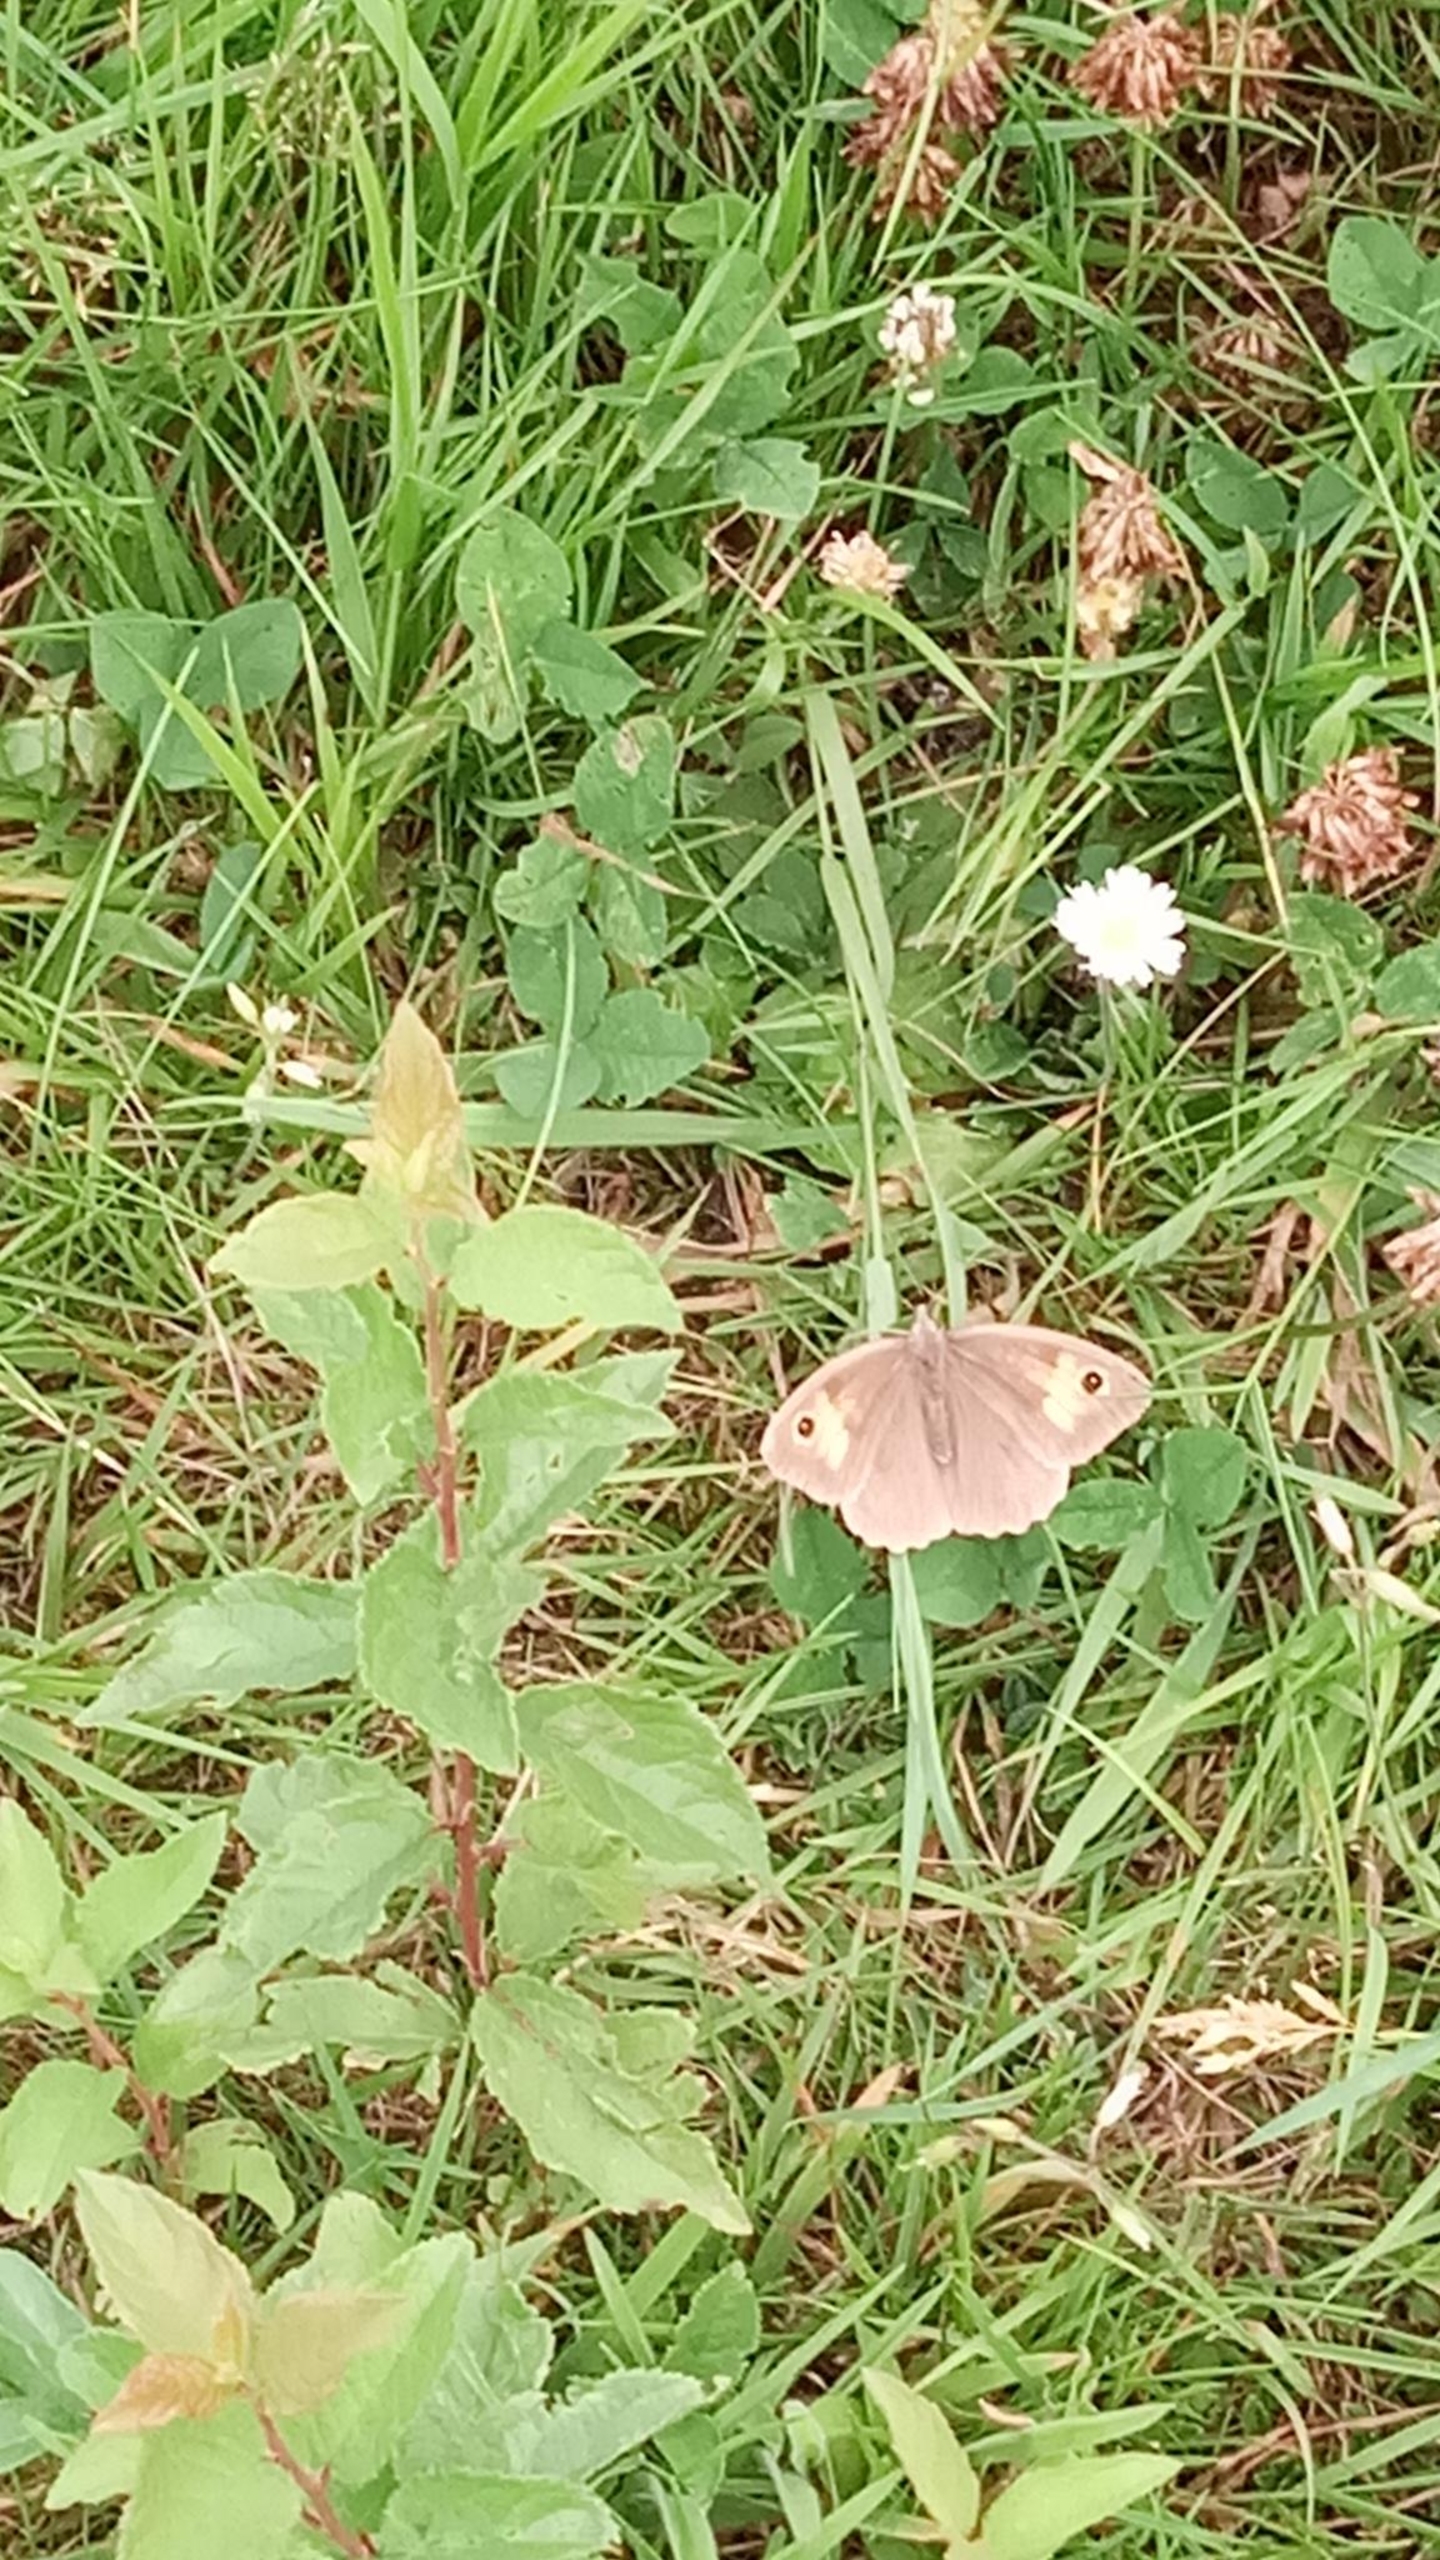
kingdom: Animalia
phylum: Arthropoda
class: Insecta
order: Lepidoptera
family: Nymphalidae
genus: Maniola
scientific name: Maniola jurtina
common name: Græsrandøje
